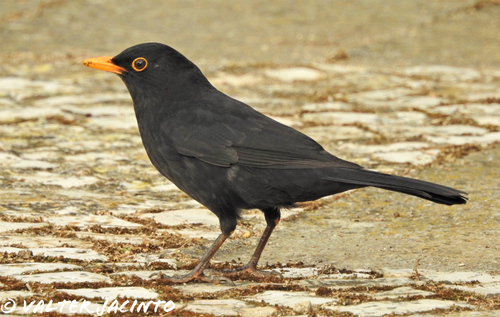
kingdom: Animalia
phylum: Chordata
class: Aves
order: Passeriformes
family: Turdidae
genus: Turdus
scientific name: Turdus merula
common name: Common blackbird
